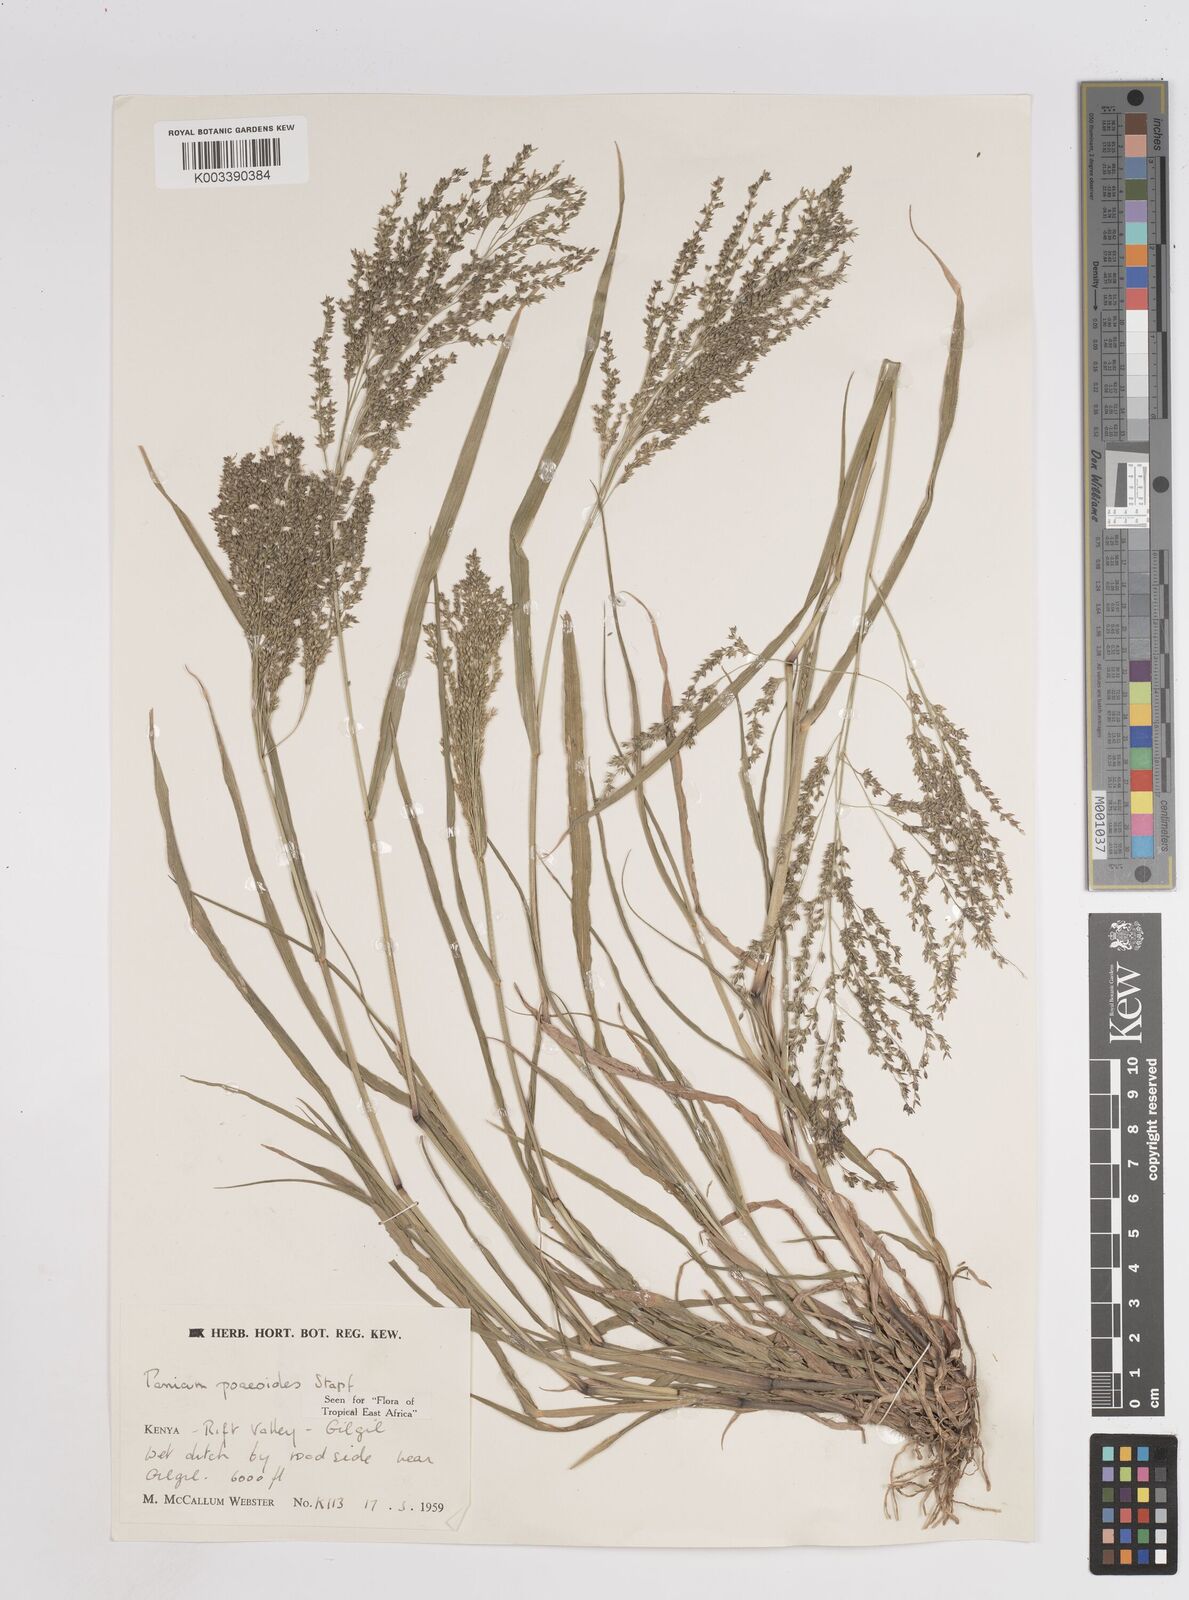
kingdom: Plantae
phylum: Tracheophyta
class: Liliopsida
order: Poales
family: Poaceae
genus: Panicum
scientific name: Panicum
